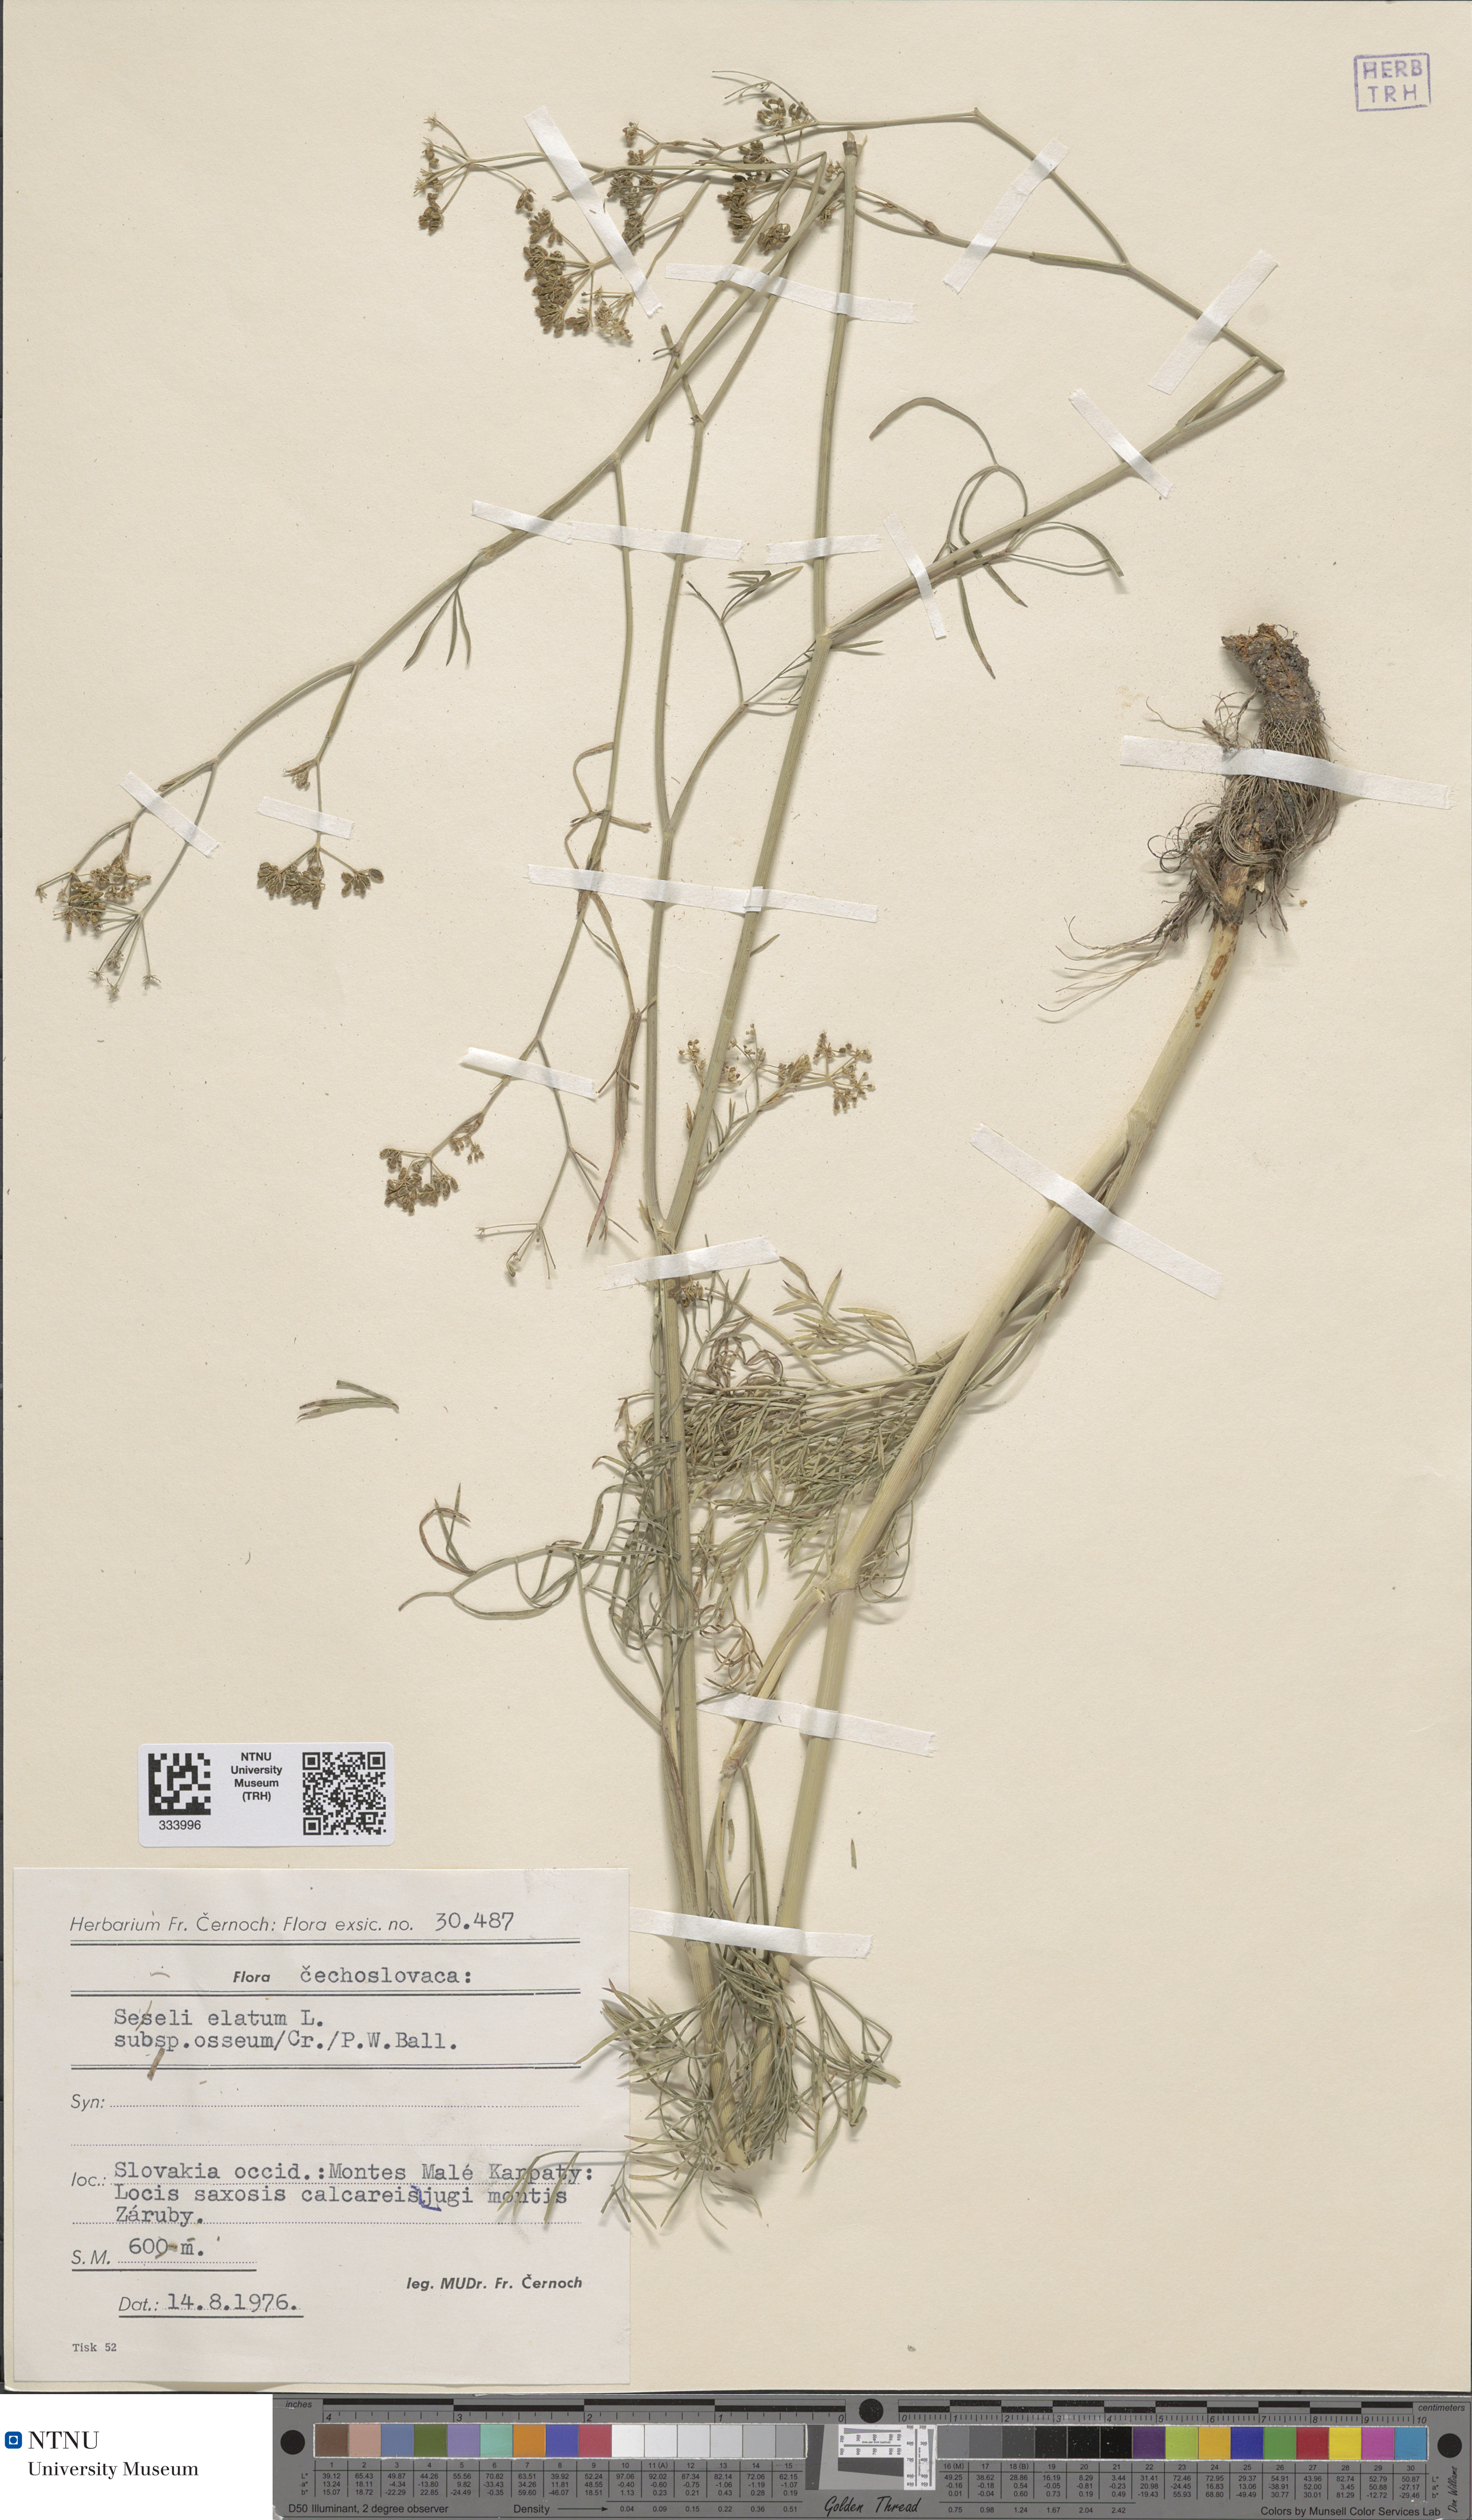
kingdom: Plantae
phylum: Tracheophyta
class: Magnoliopsida
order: Apiales
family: Apiaceae
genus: Seseli
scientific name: Seseli longifolium
